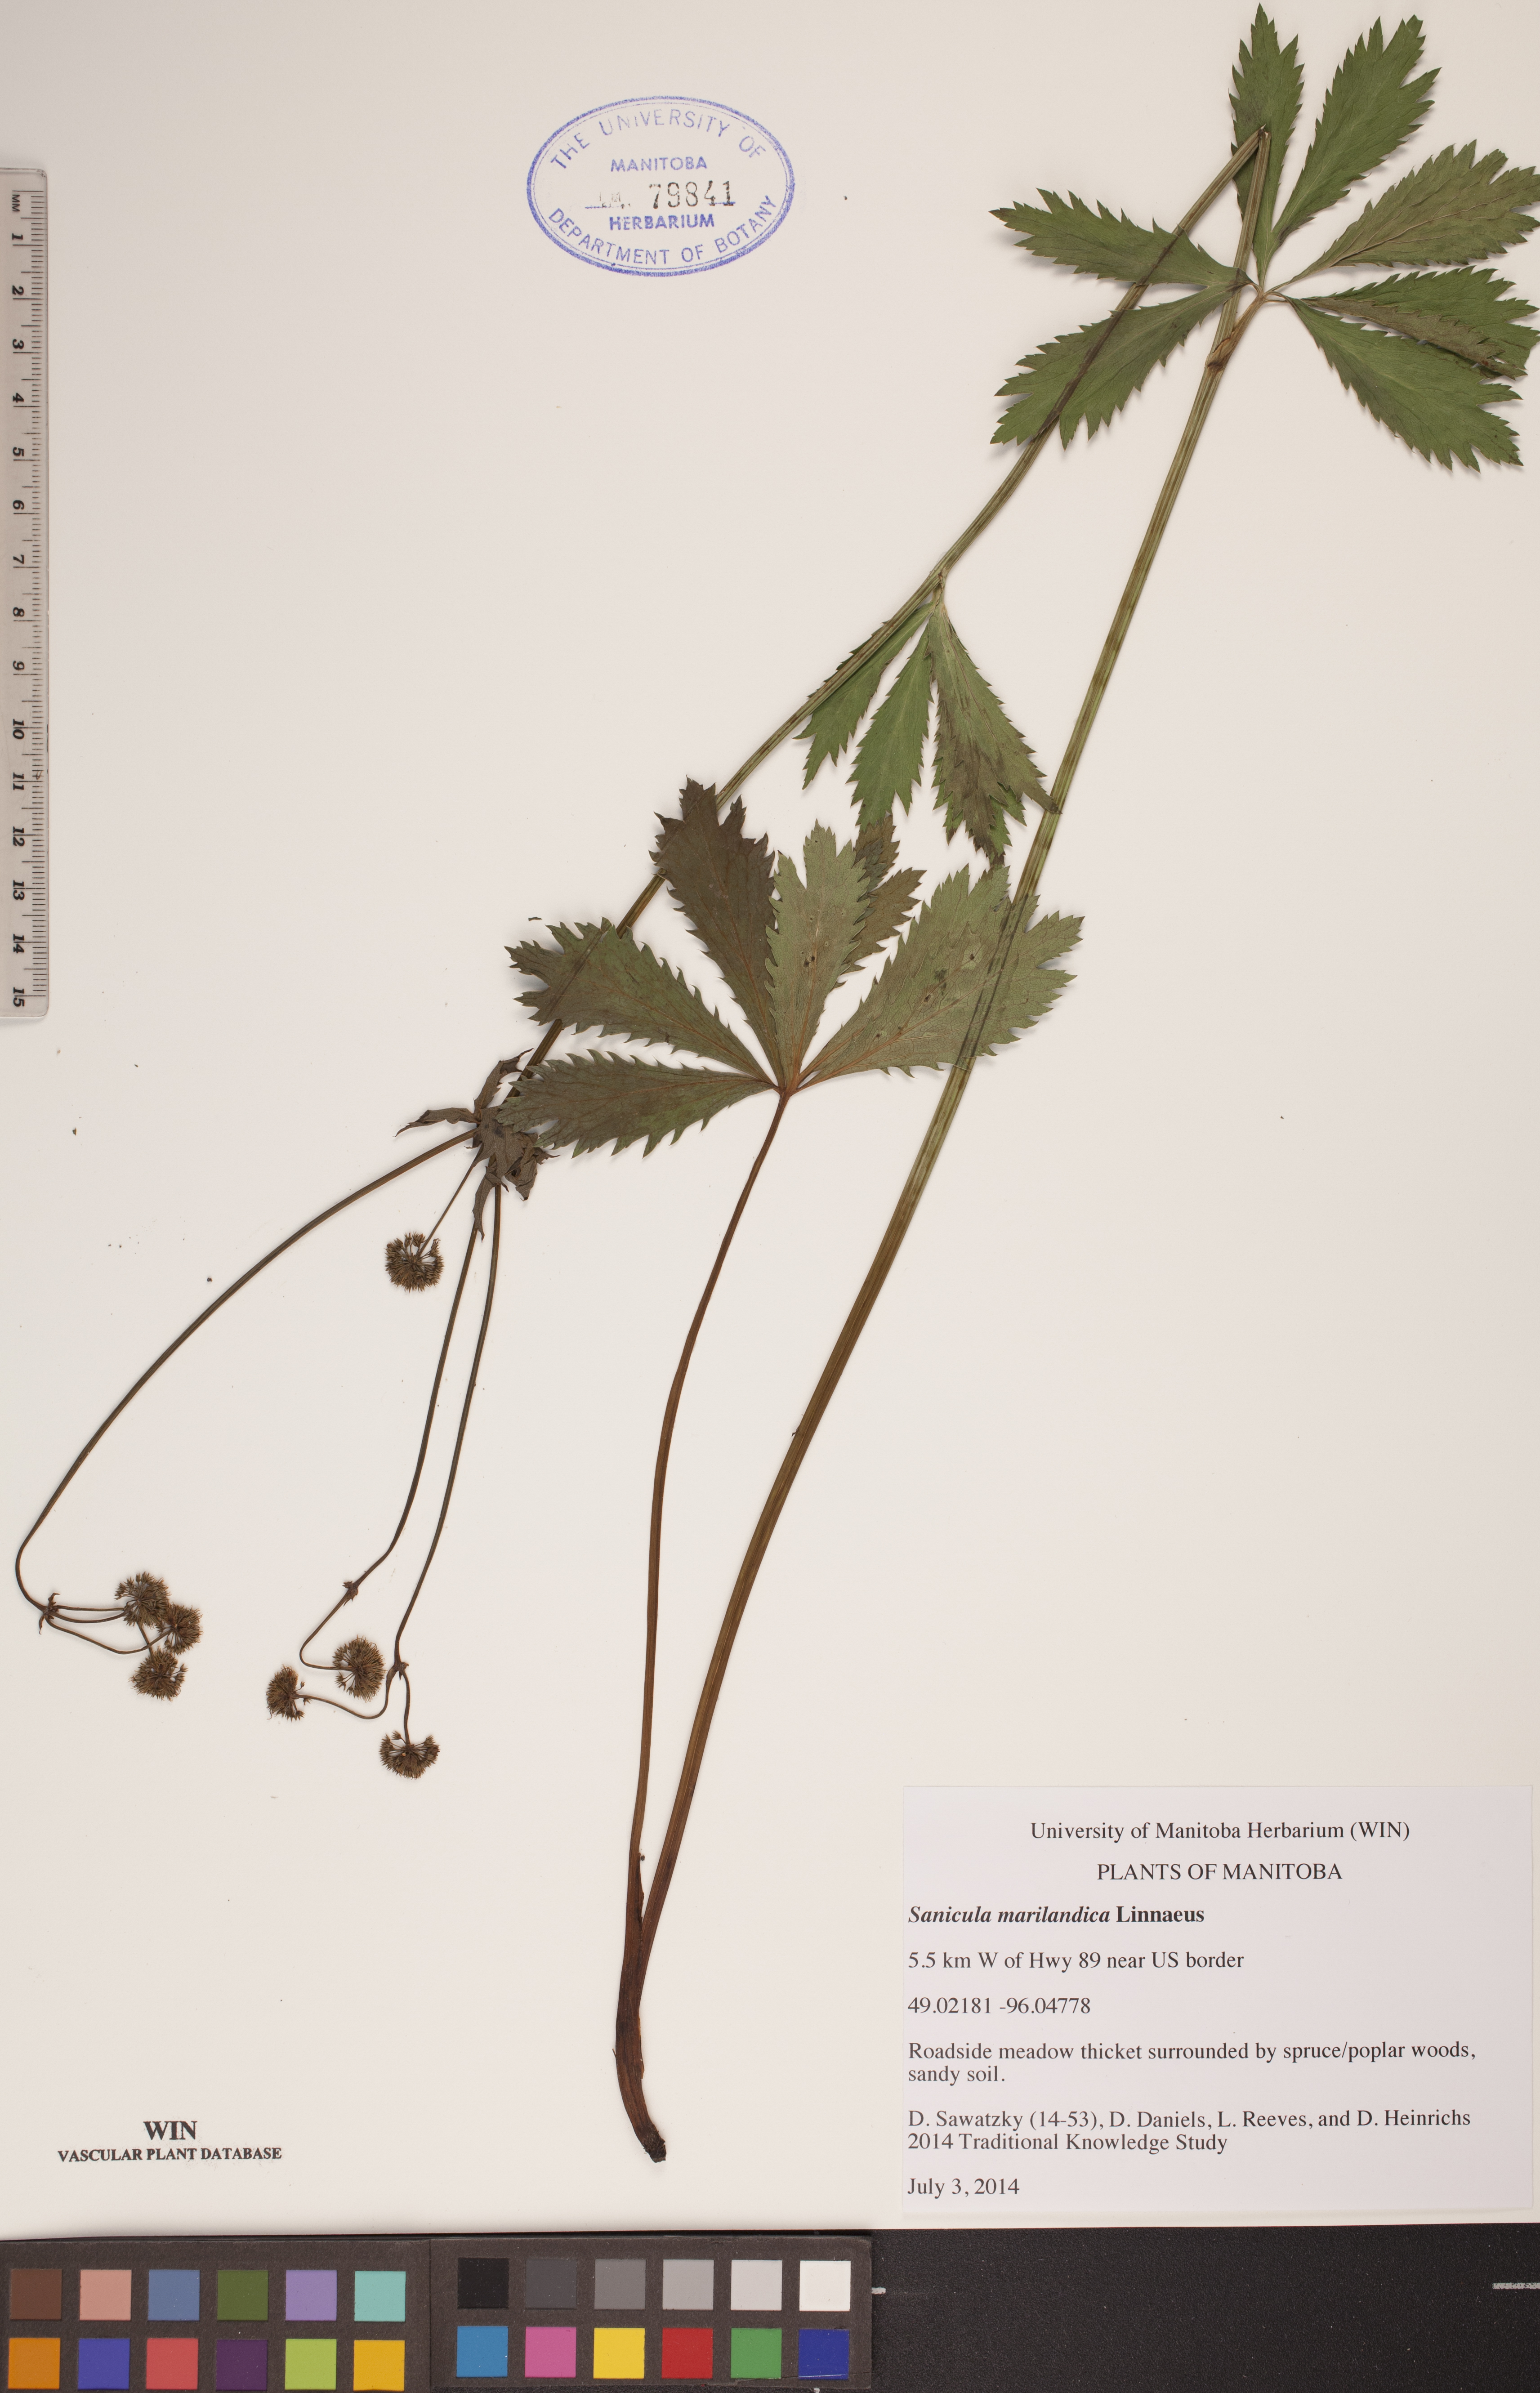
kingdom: Plantae
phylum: Tracheophyta
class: Magnoliopsida
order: Apiales
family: Apiaceae
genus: Sanicula
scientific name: Sanicula marilandica
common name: Black snakeroot
